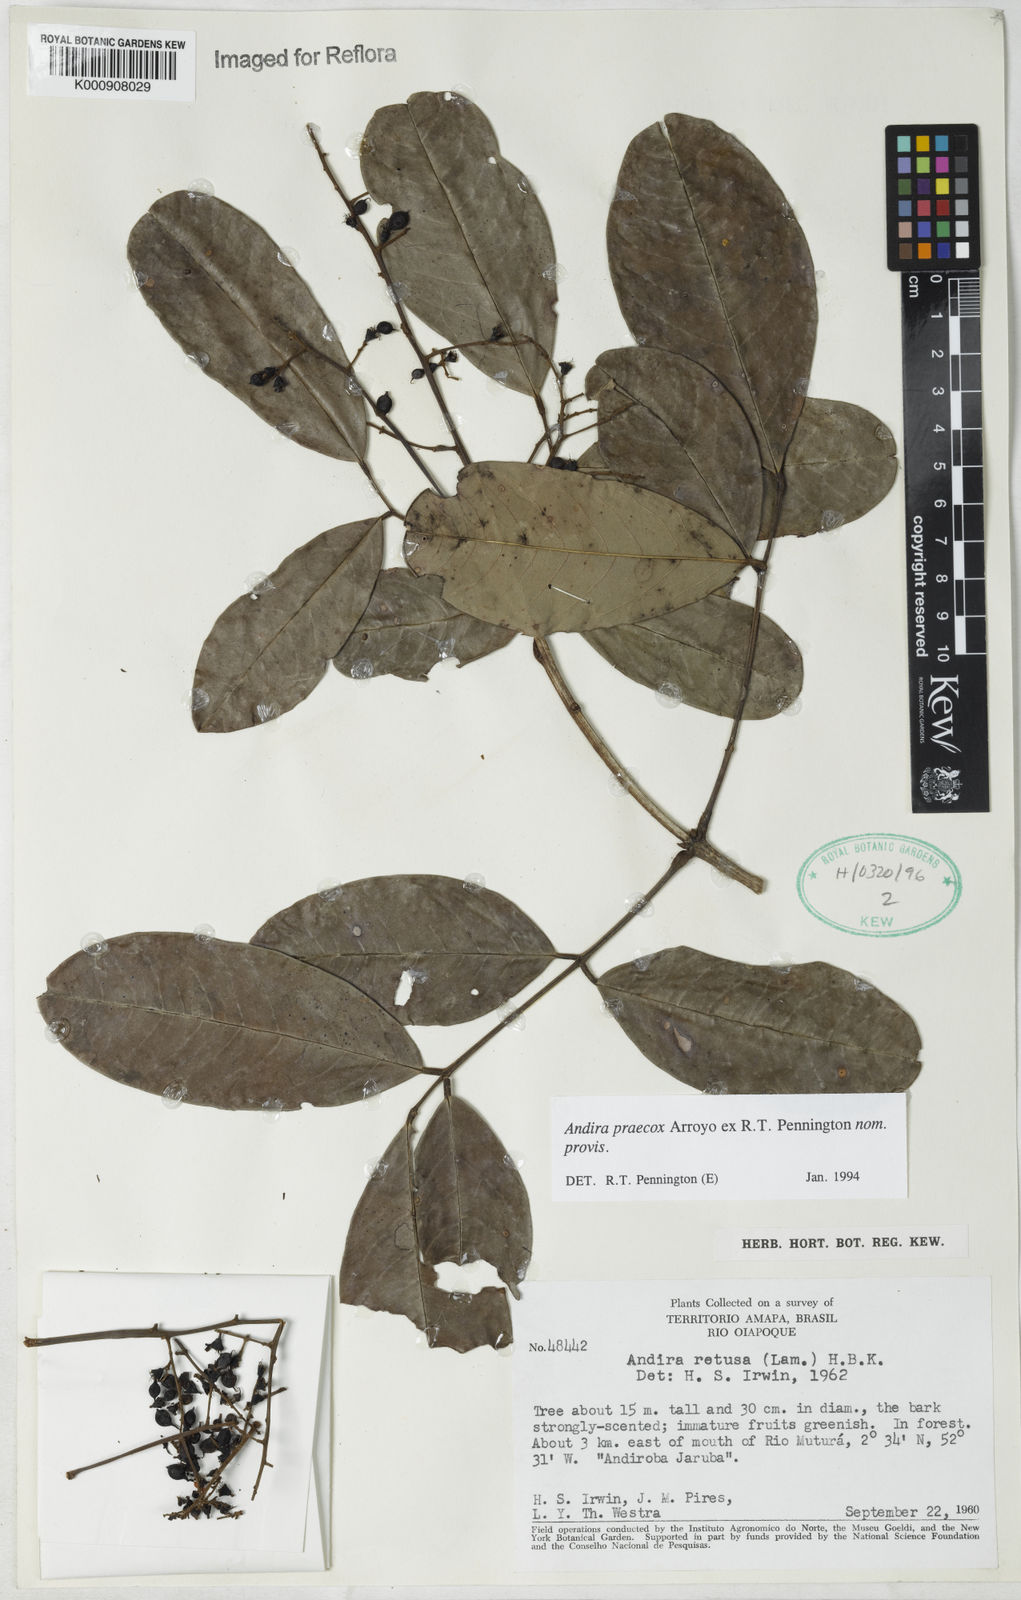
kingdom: Plantae
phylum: Tracheophyta
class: Magnoliopsida
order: Fabales
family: Fabaceae
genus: Andira
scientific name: Andira praecox
